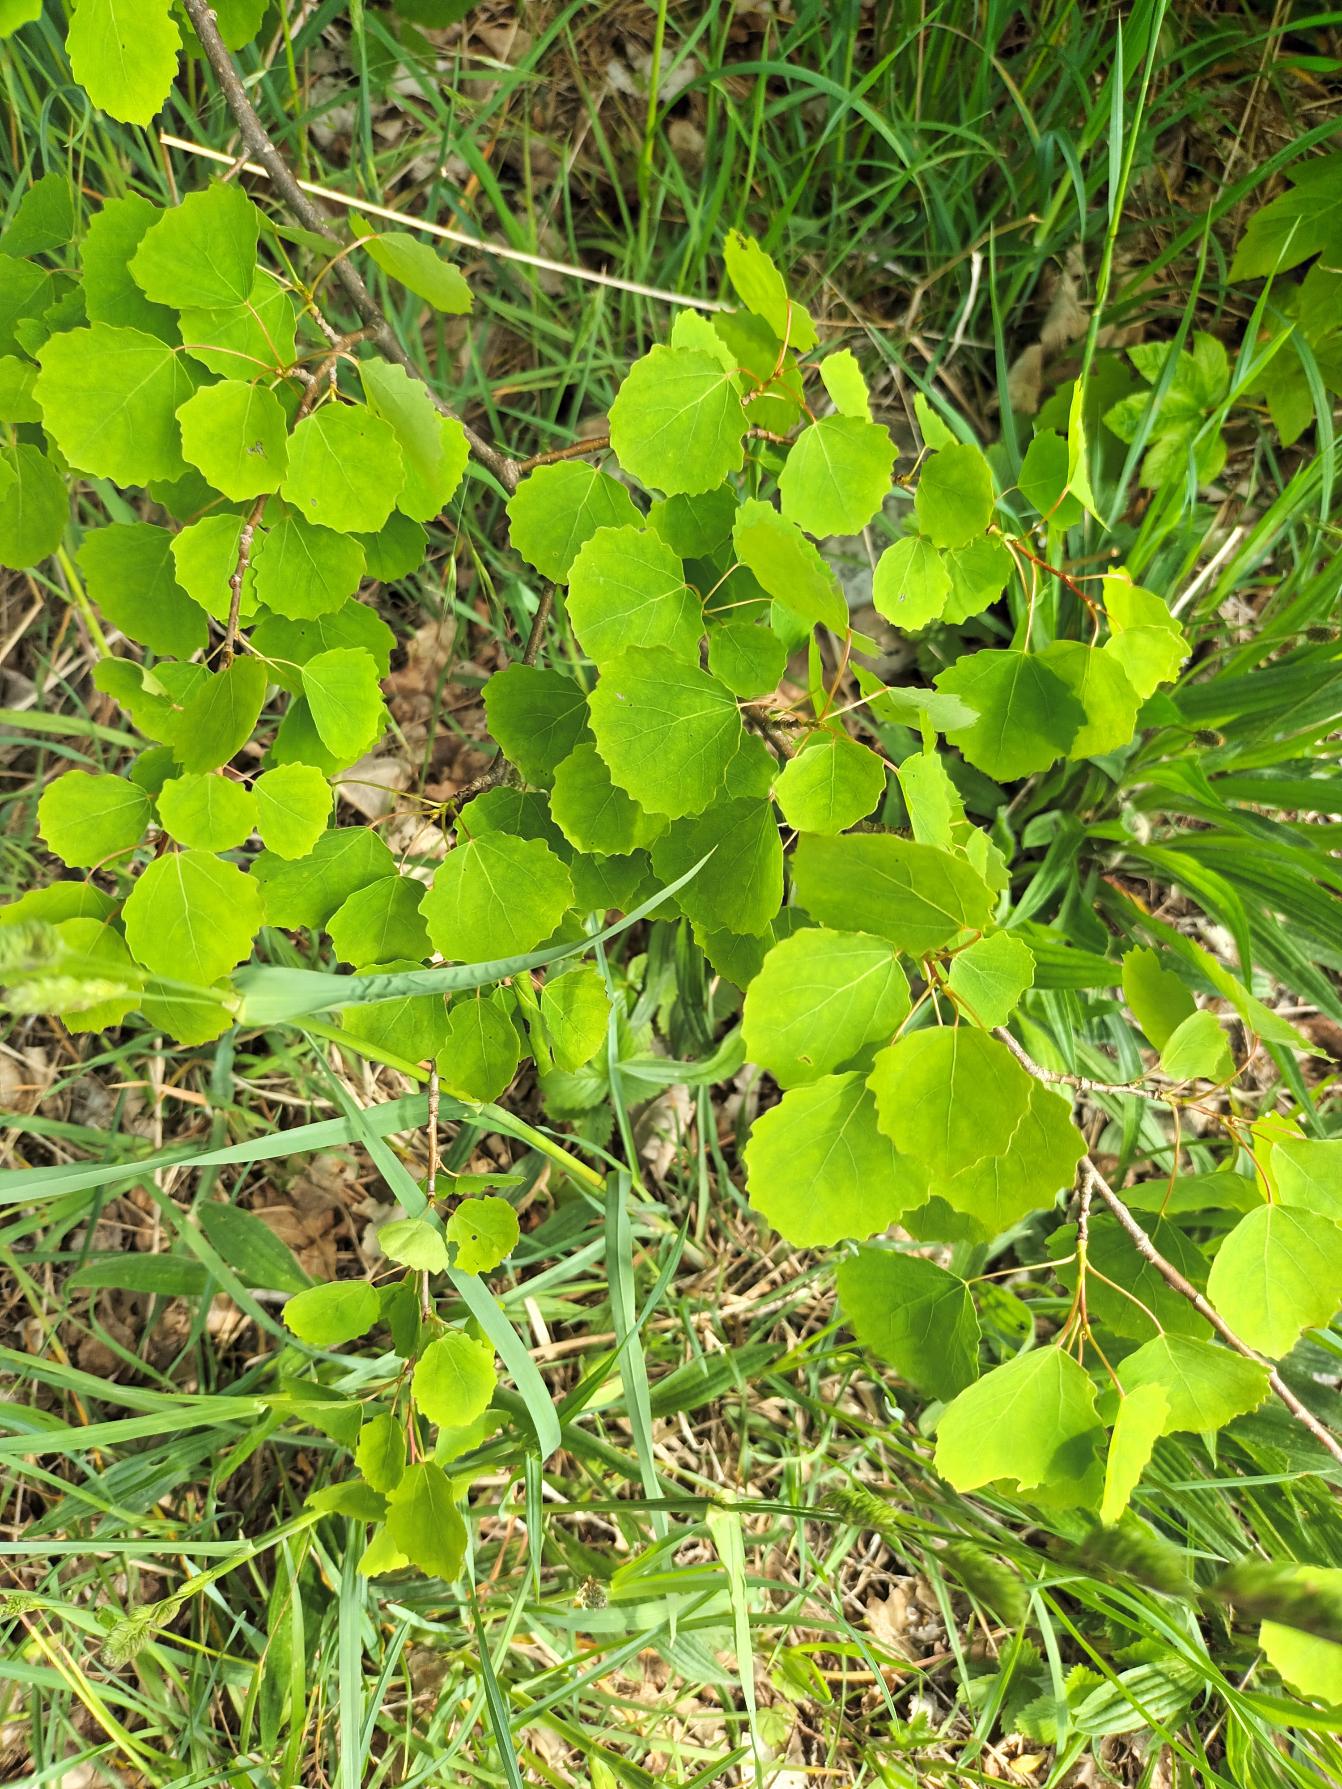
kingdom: Plantae
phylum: Tracheophyta
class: Magnoliopsida
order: Malpighiales
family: Salicaceae
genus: Populus
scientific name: Populus tremula
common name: Bævreasp
